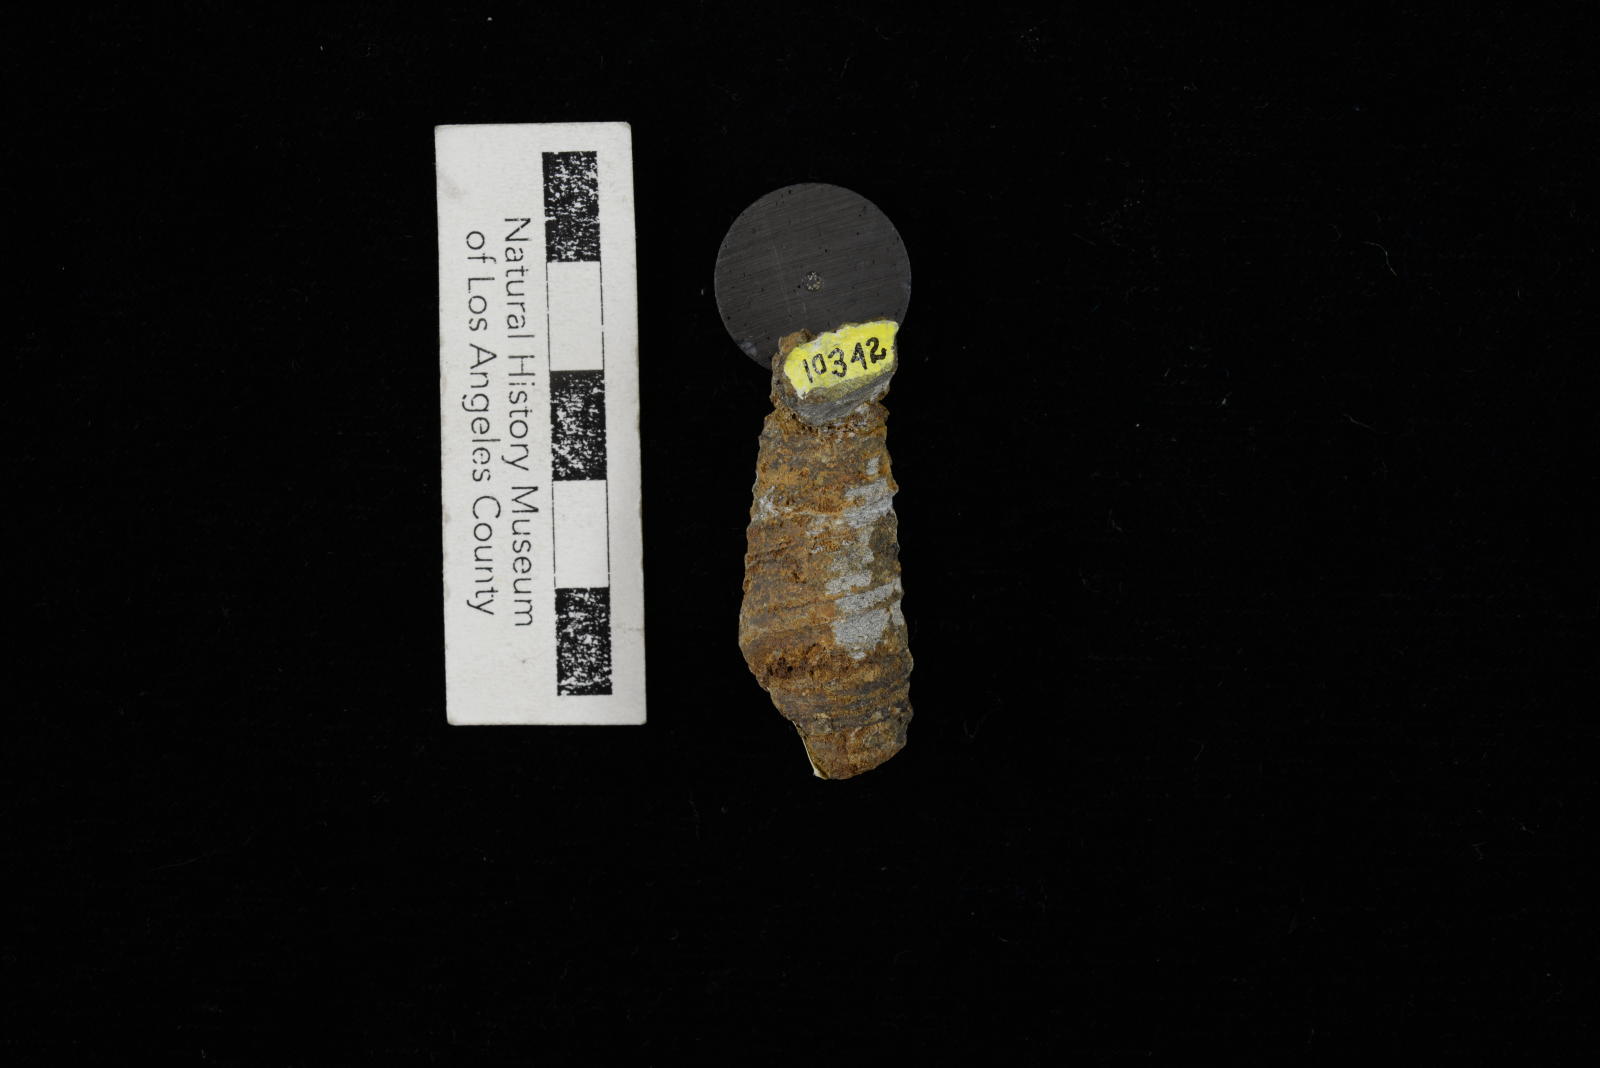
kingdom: Animalia
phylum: Mollusca
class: Gastropoda
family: Turritellidae
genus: Turritella
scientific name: Turritella
